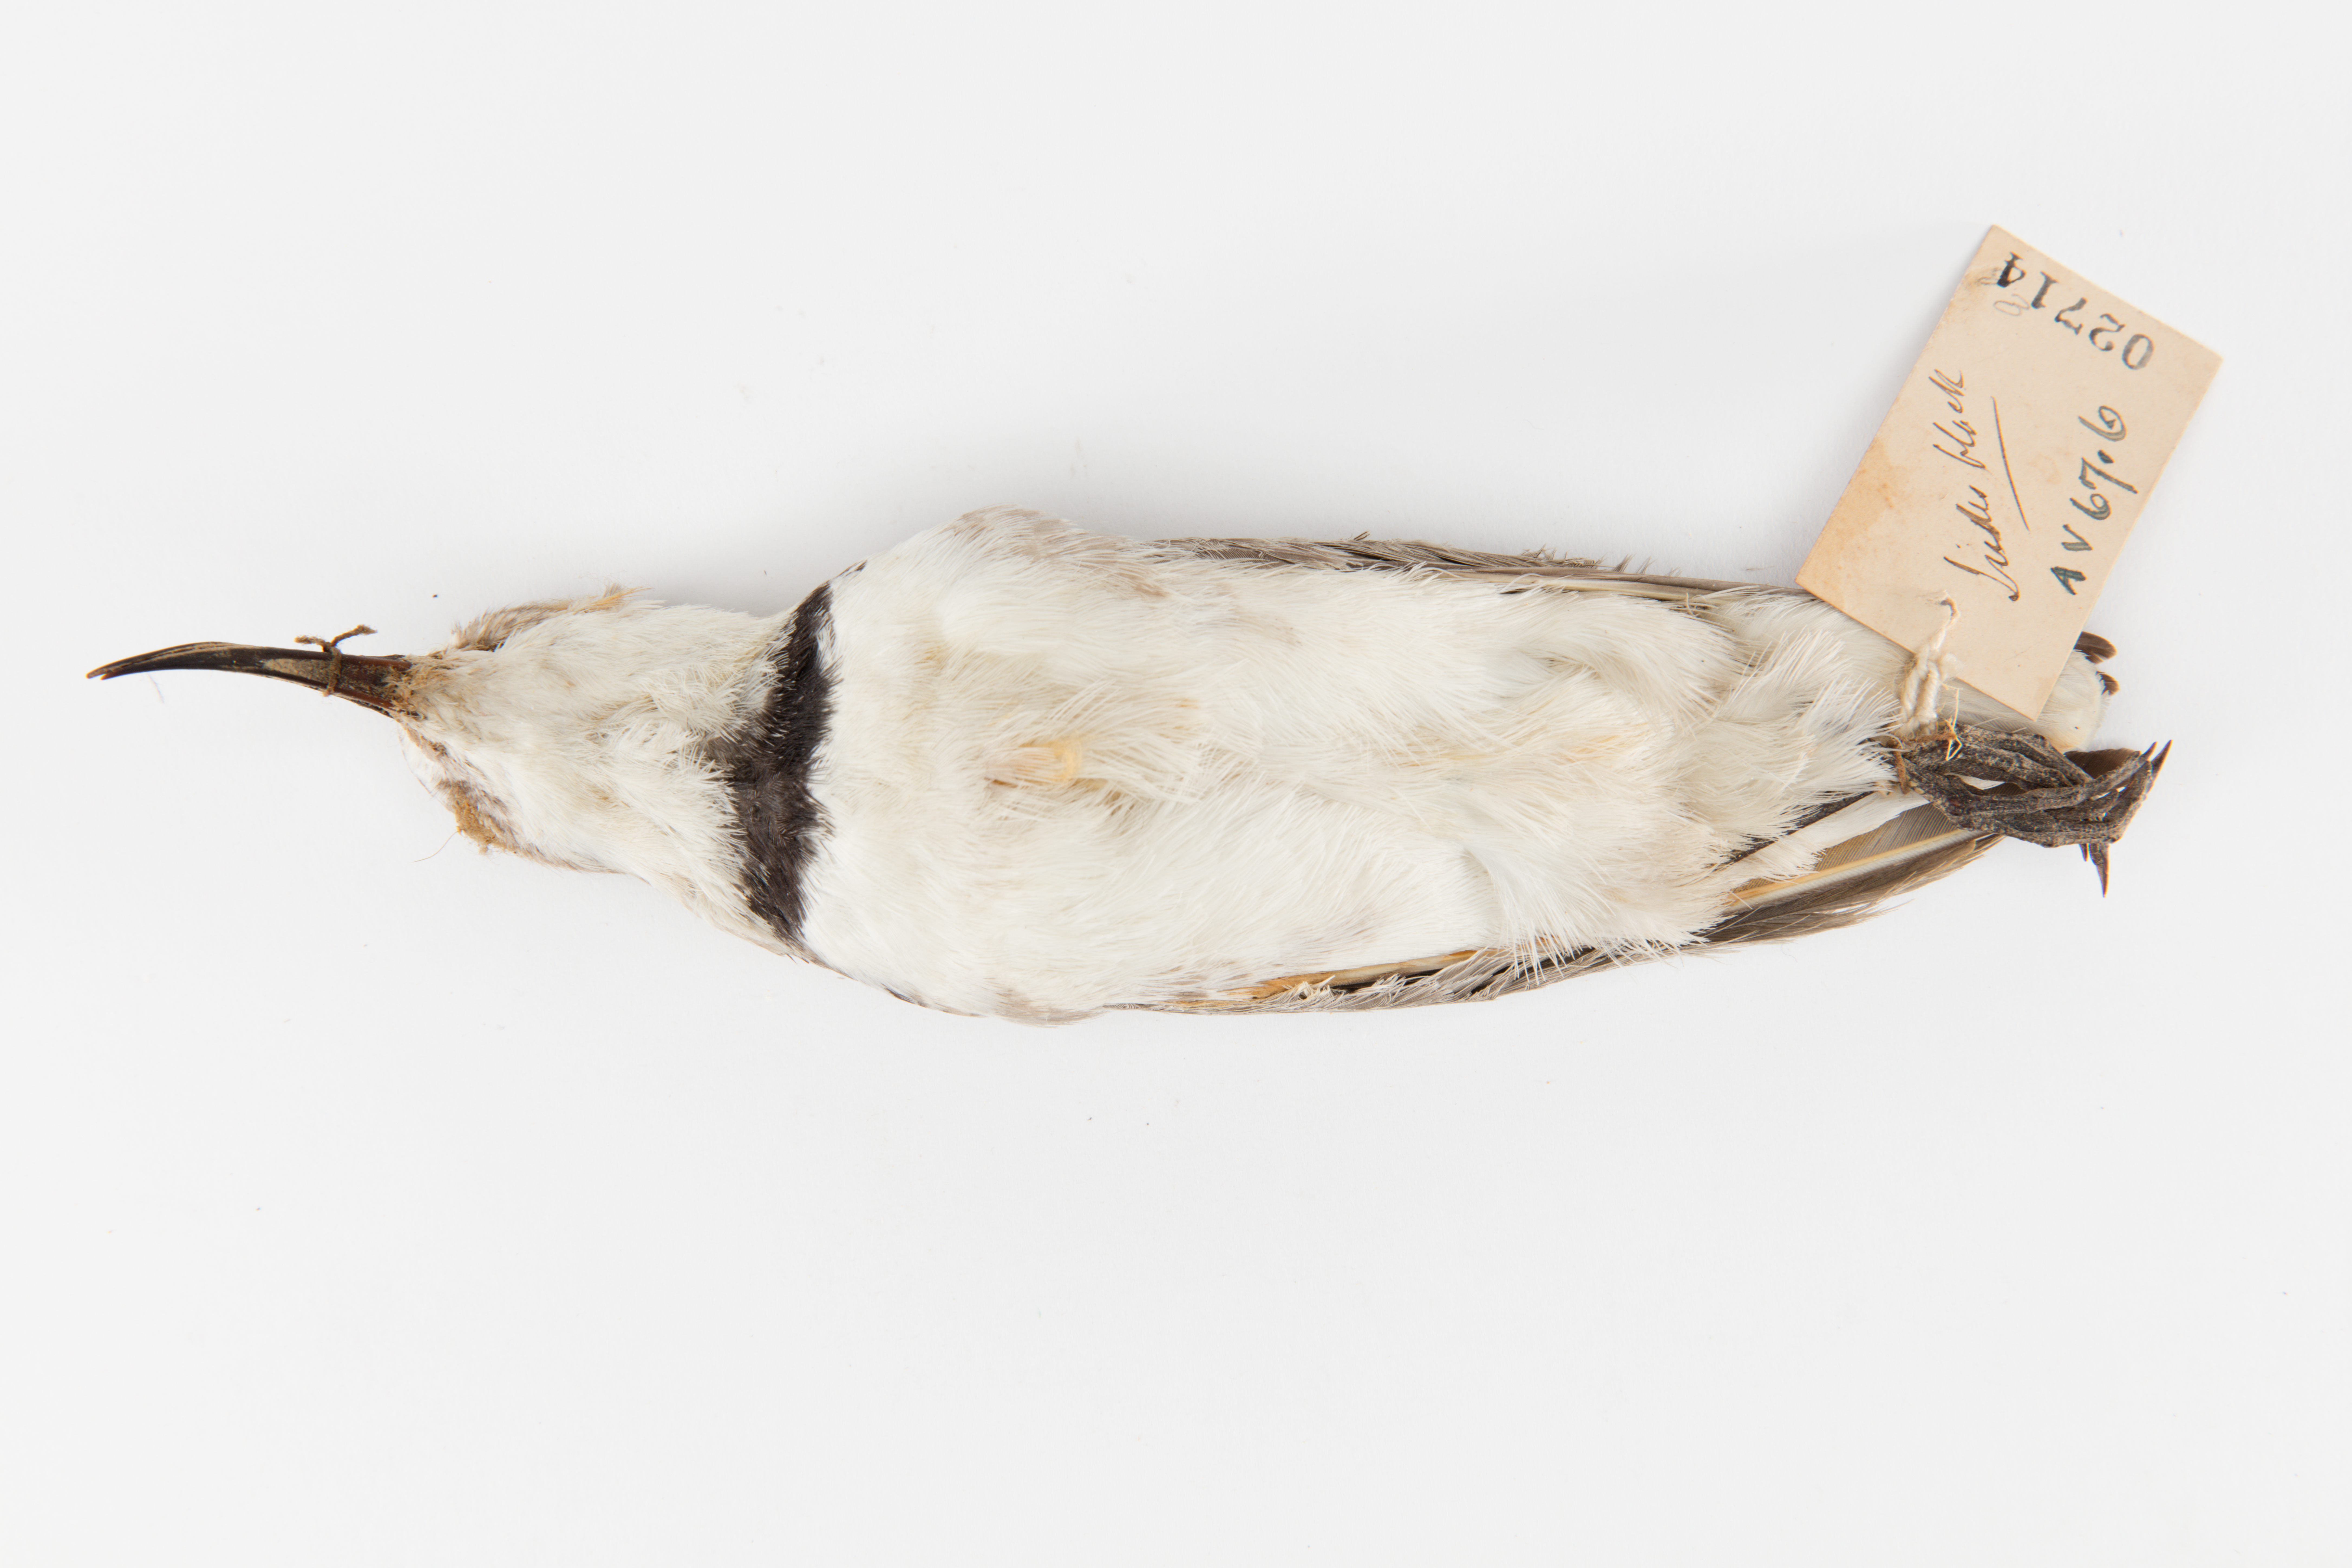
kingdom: Animalia
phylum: Chordata
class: Aves
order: Charadriiformes
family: Charadriidae
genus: Charadrius
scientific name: Charadrius frontalis
